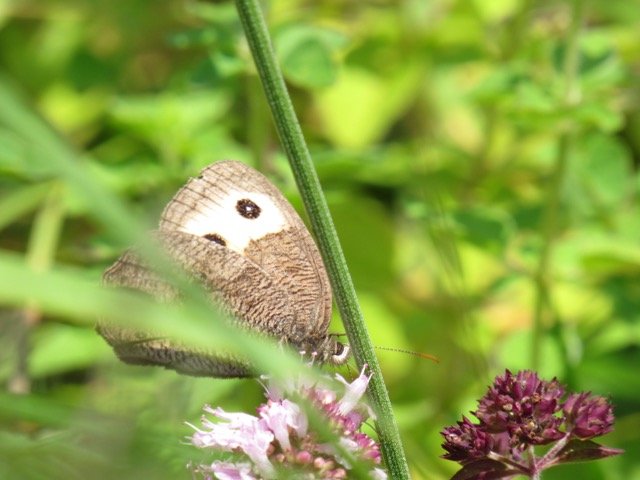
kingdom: Animalia
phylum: Arthropoda
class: Insecta
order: Lepidoptera
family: Nymphalidae
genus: Cercyonis
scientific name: Cercyonis pegala
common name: Common Wood-Nymph
